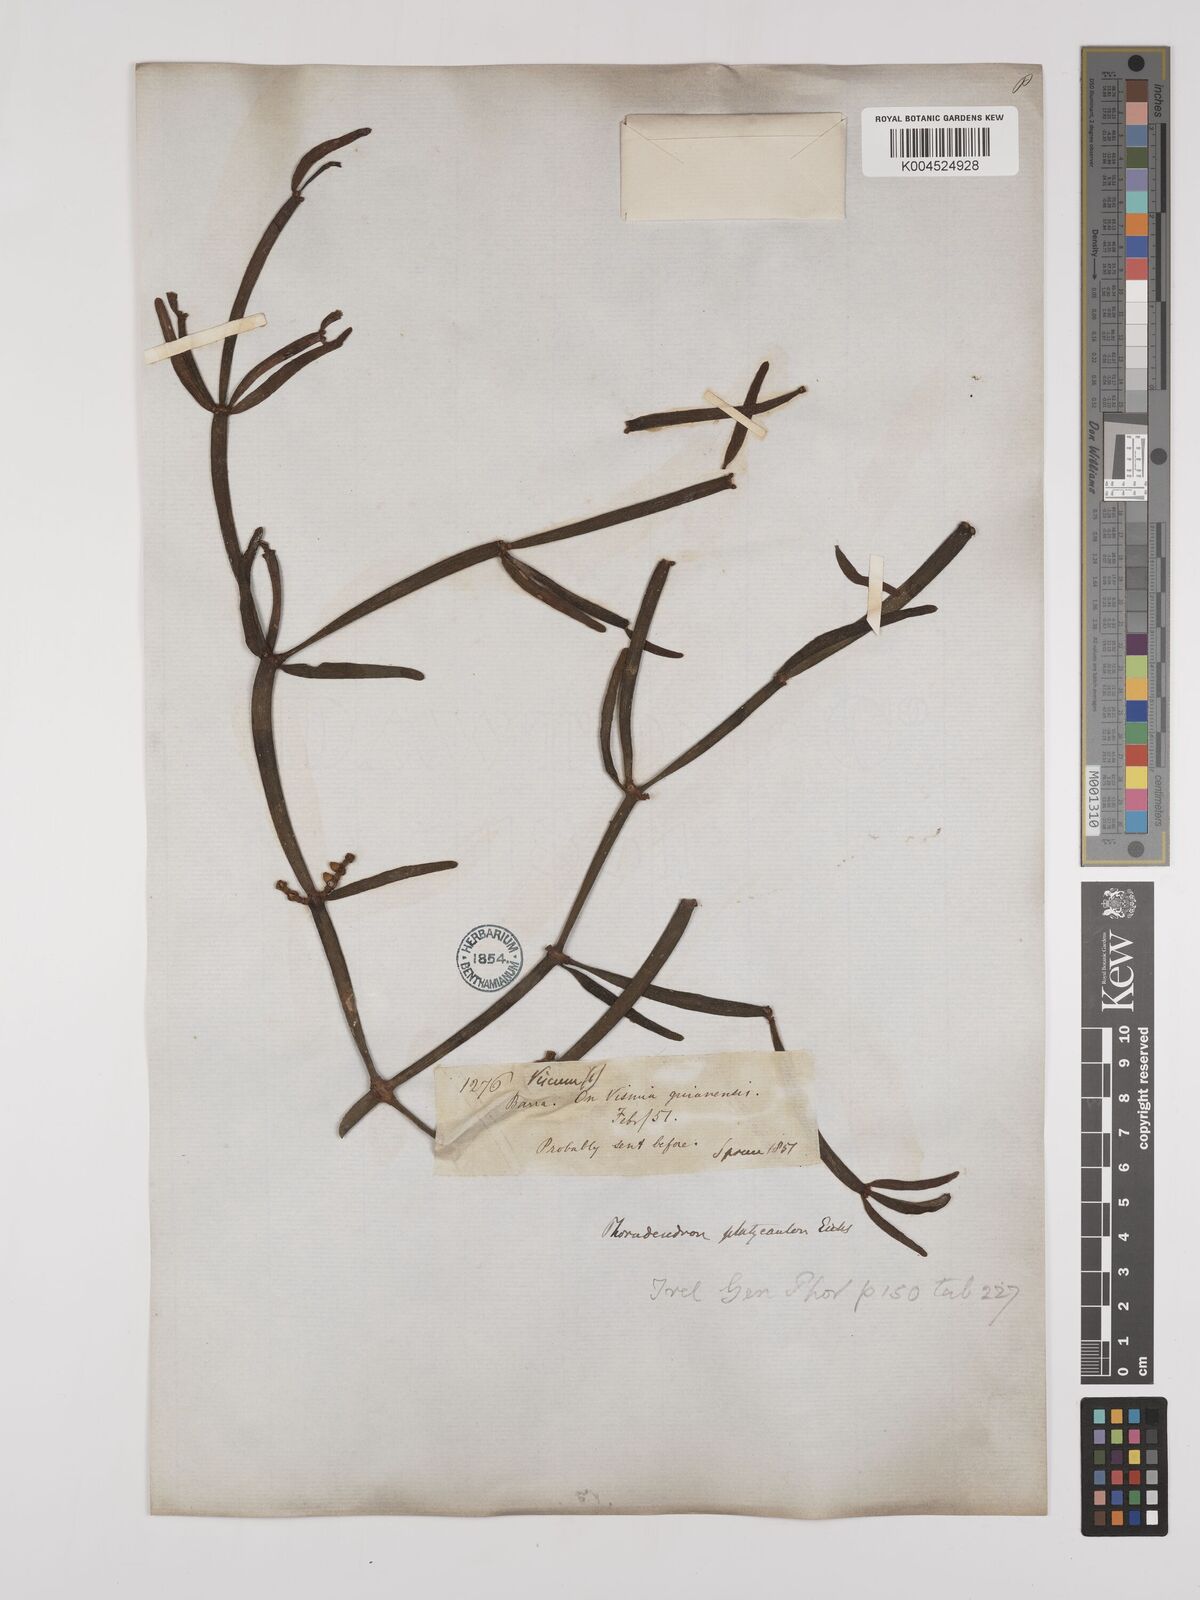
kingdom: Plantae
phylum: Tracheophyta
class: Magnoliopsida
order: Santalales
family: Viscaceae
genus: Phoradendron
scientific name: Phoradendron planiphyllum
